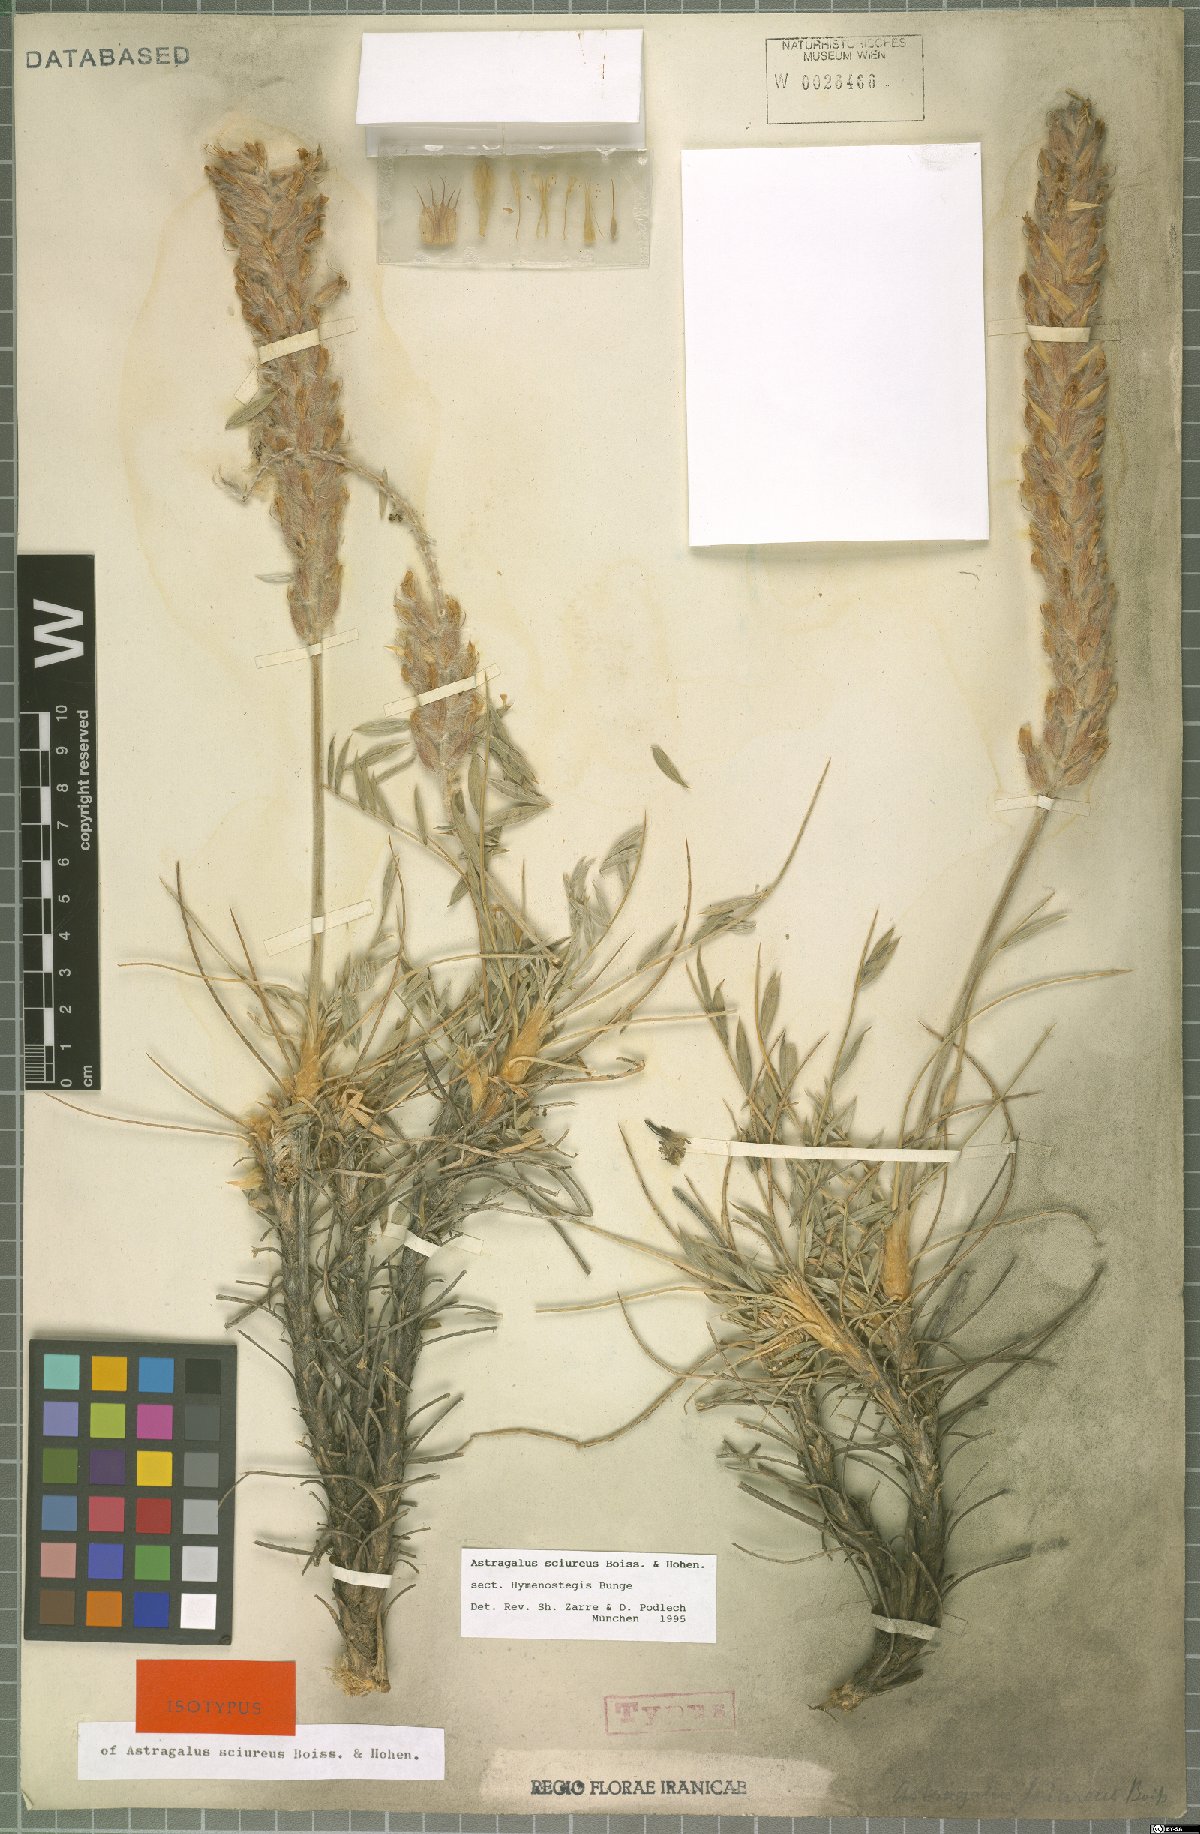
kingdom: Plantae
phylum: Tracheophyta
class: Magnoliopsida
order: Fabales
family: Fabaceae
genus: Astragalus
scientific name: Astragalus sciureus
